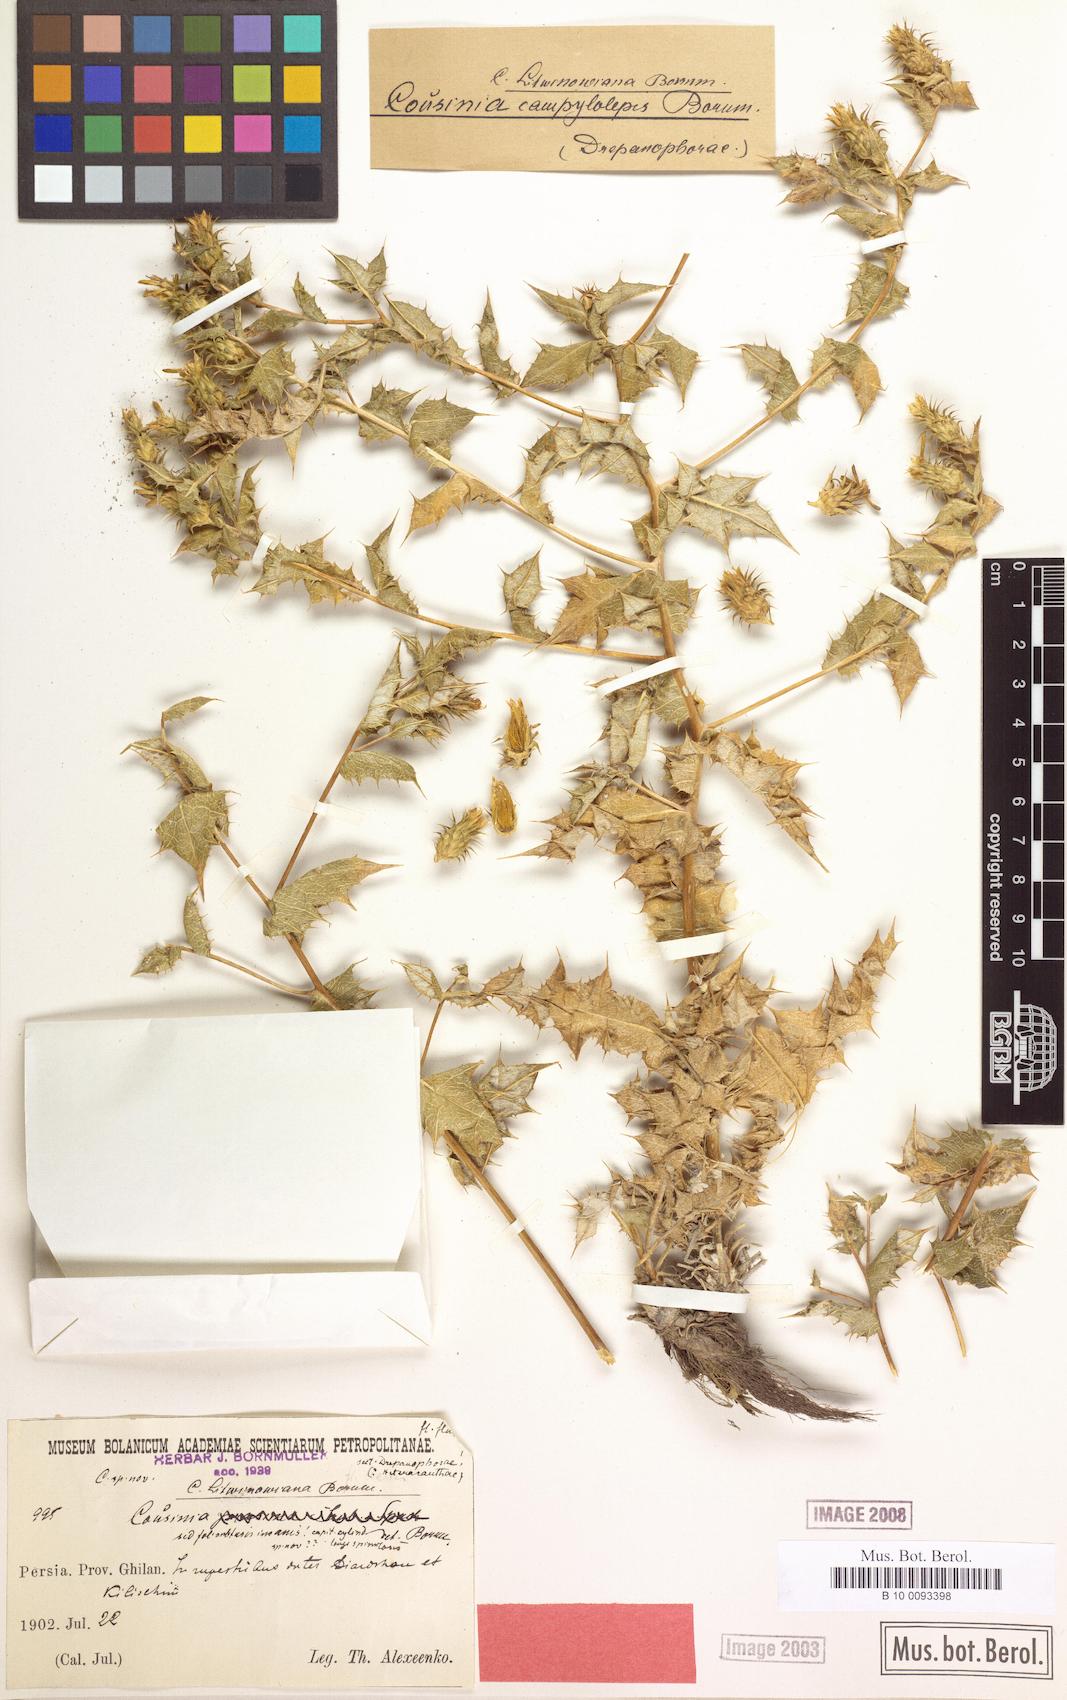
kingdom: Plantae
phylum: Tracheophyta
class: Magnoliopsida
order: Asterales
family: Asteraceae
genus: Cousinia
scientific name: Cousinia litwinowiana
